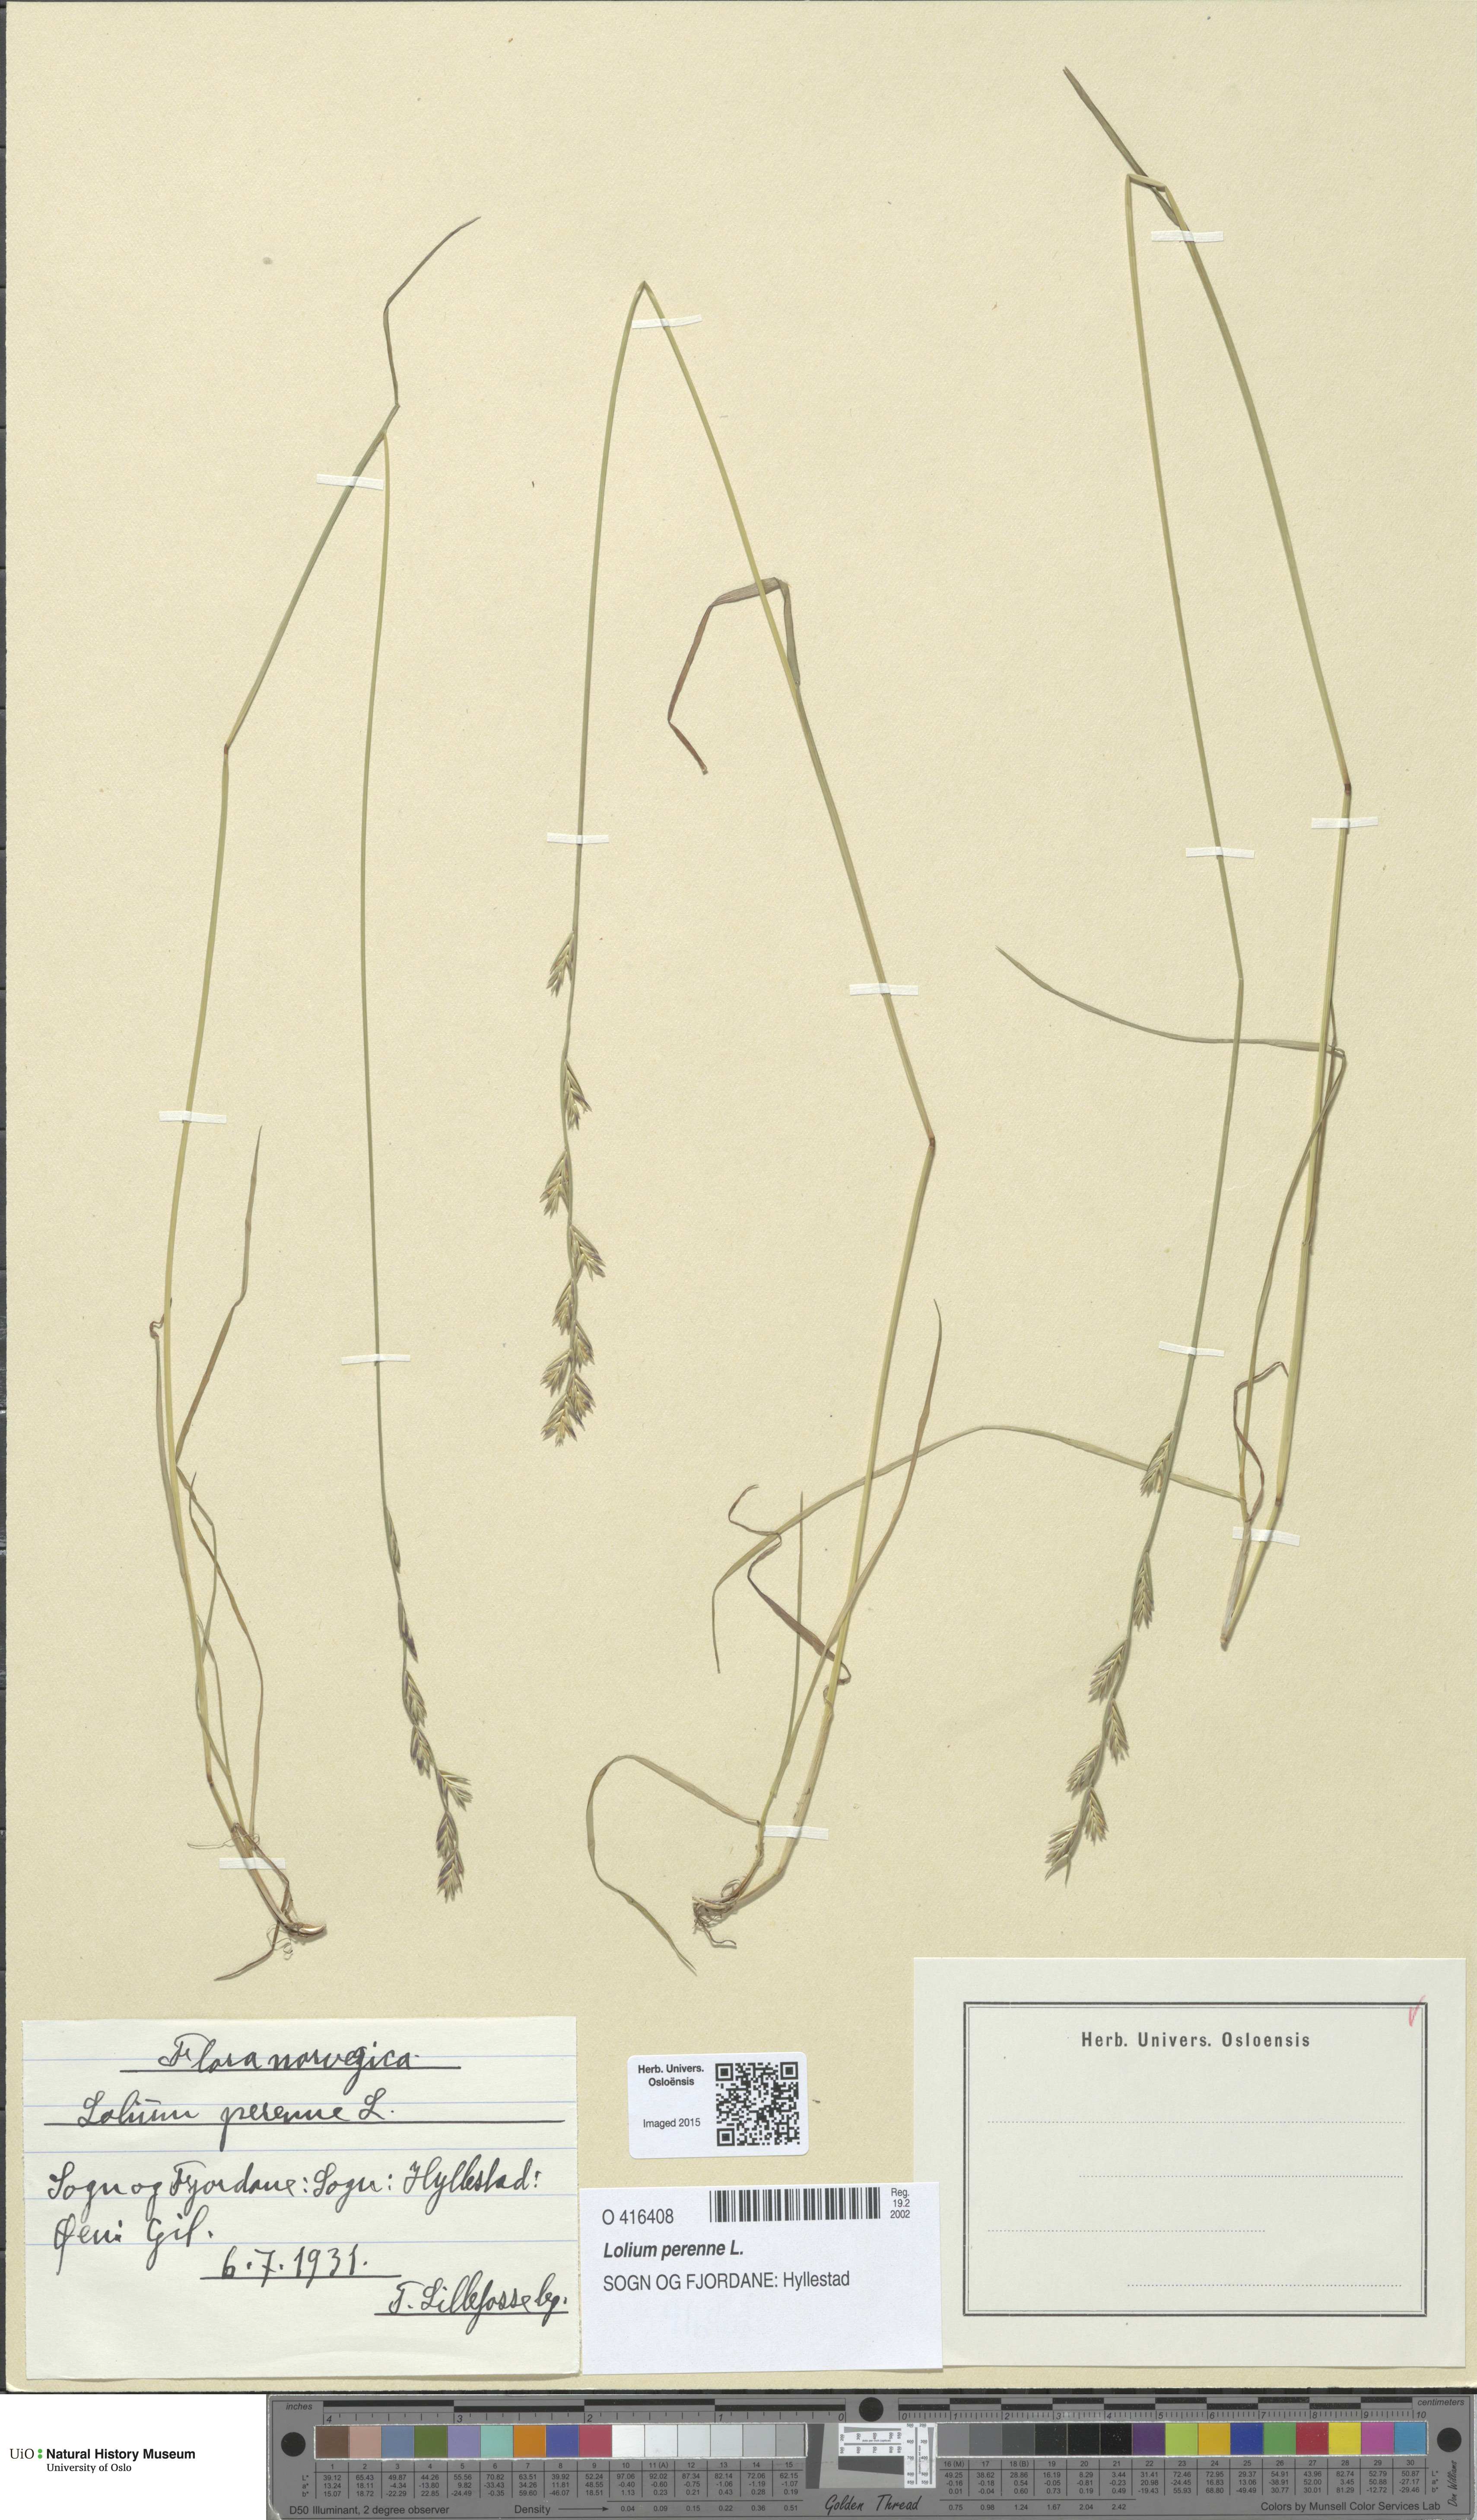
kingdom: Plantae
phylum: Tracheophyta
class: Liliopsida
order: Poales
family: Poaceae
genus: Lolium
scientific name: Lolium perenne
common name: Perennial ryegrass
